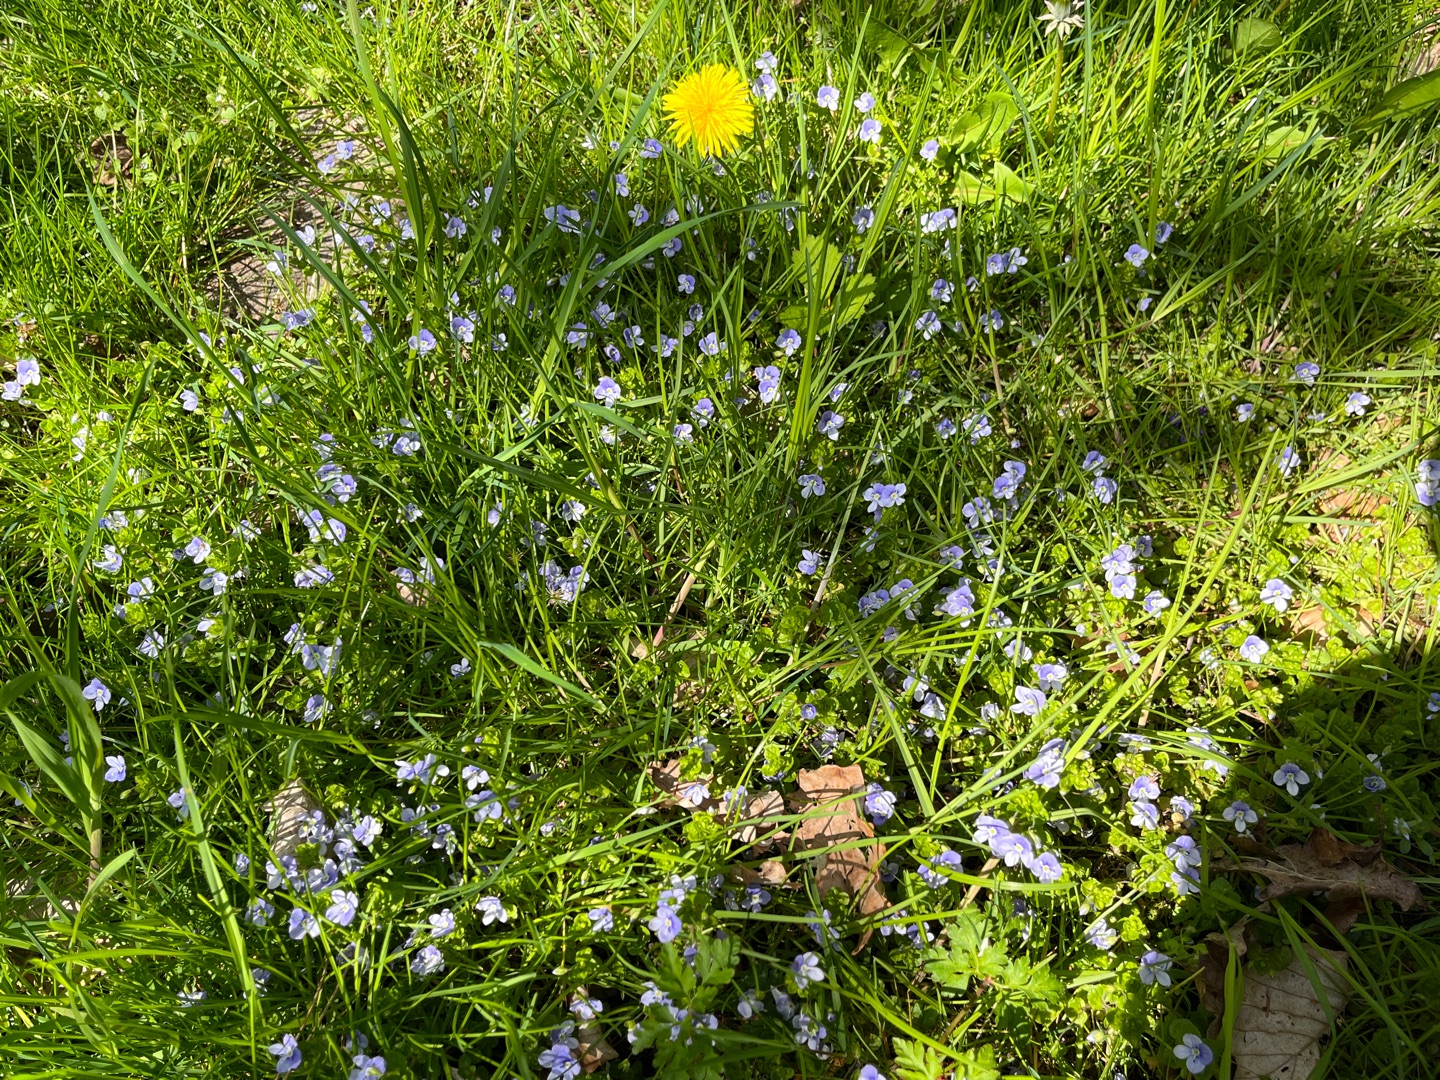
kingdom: Plantae
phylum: Tracheophyta
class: Magnoliopsida
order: Lamiales
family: Plantaginaceae
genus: Veronica
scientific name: Veronica filiformis
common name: Tråd-ærenpris
